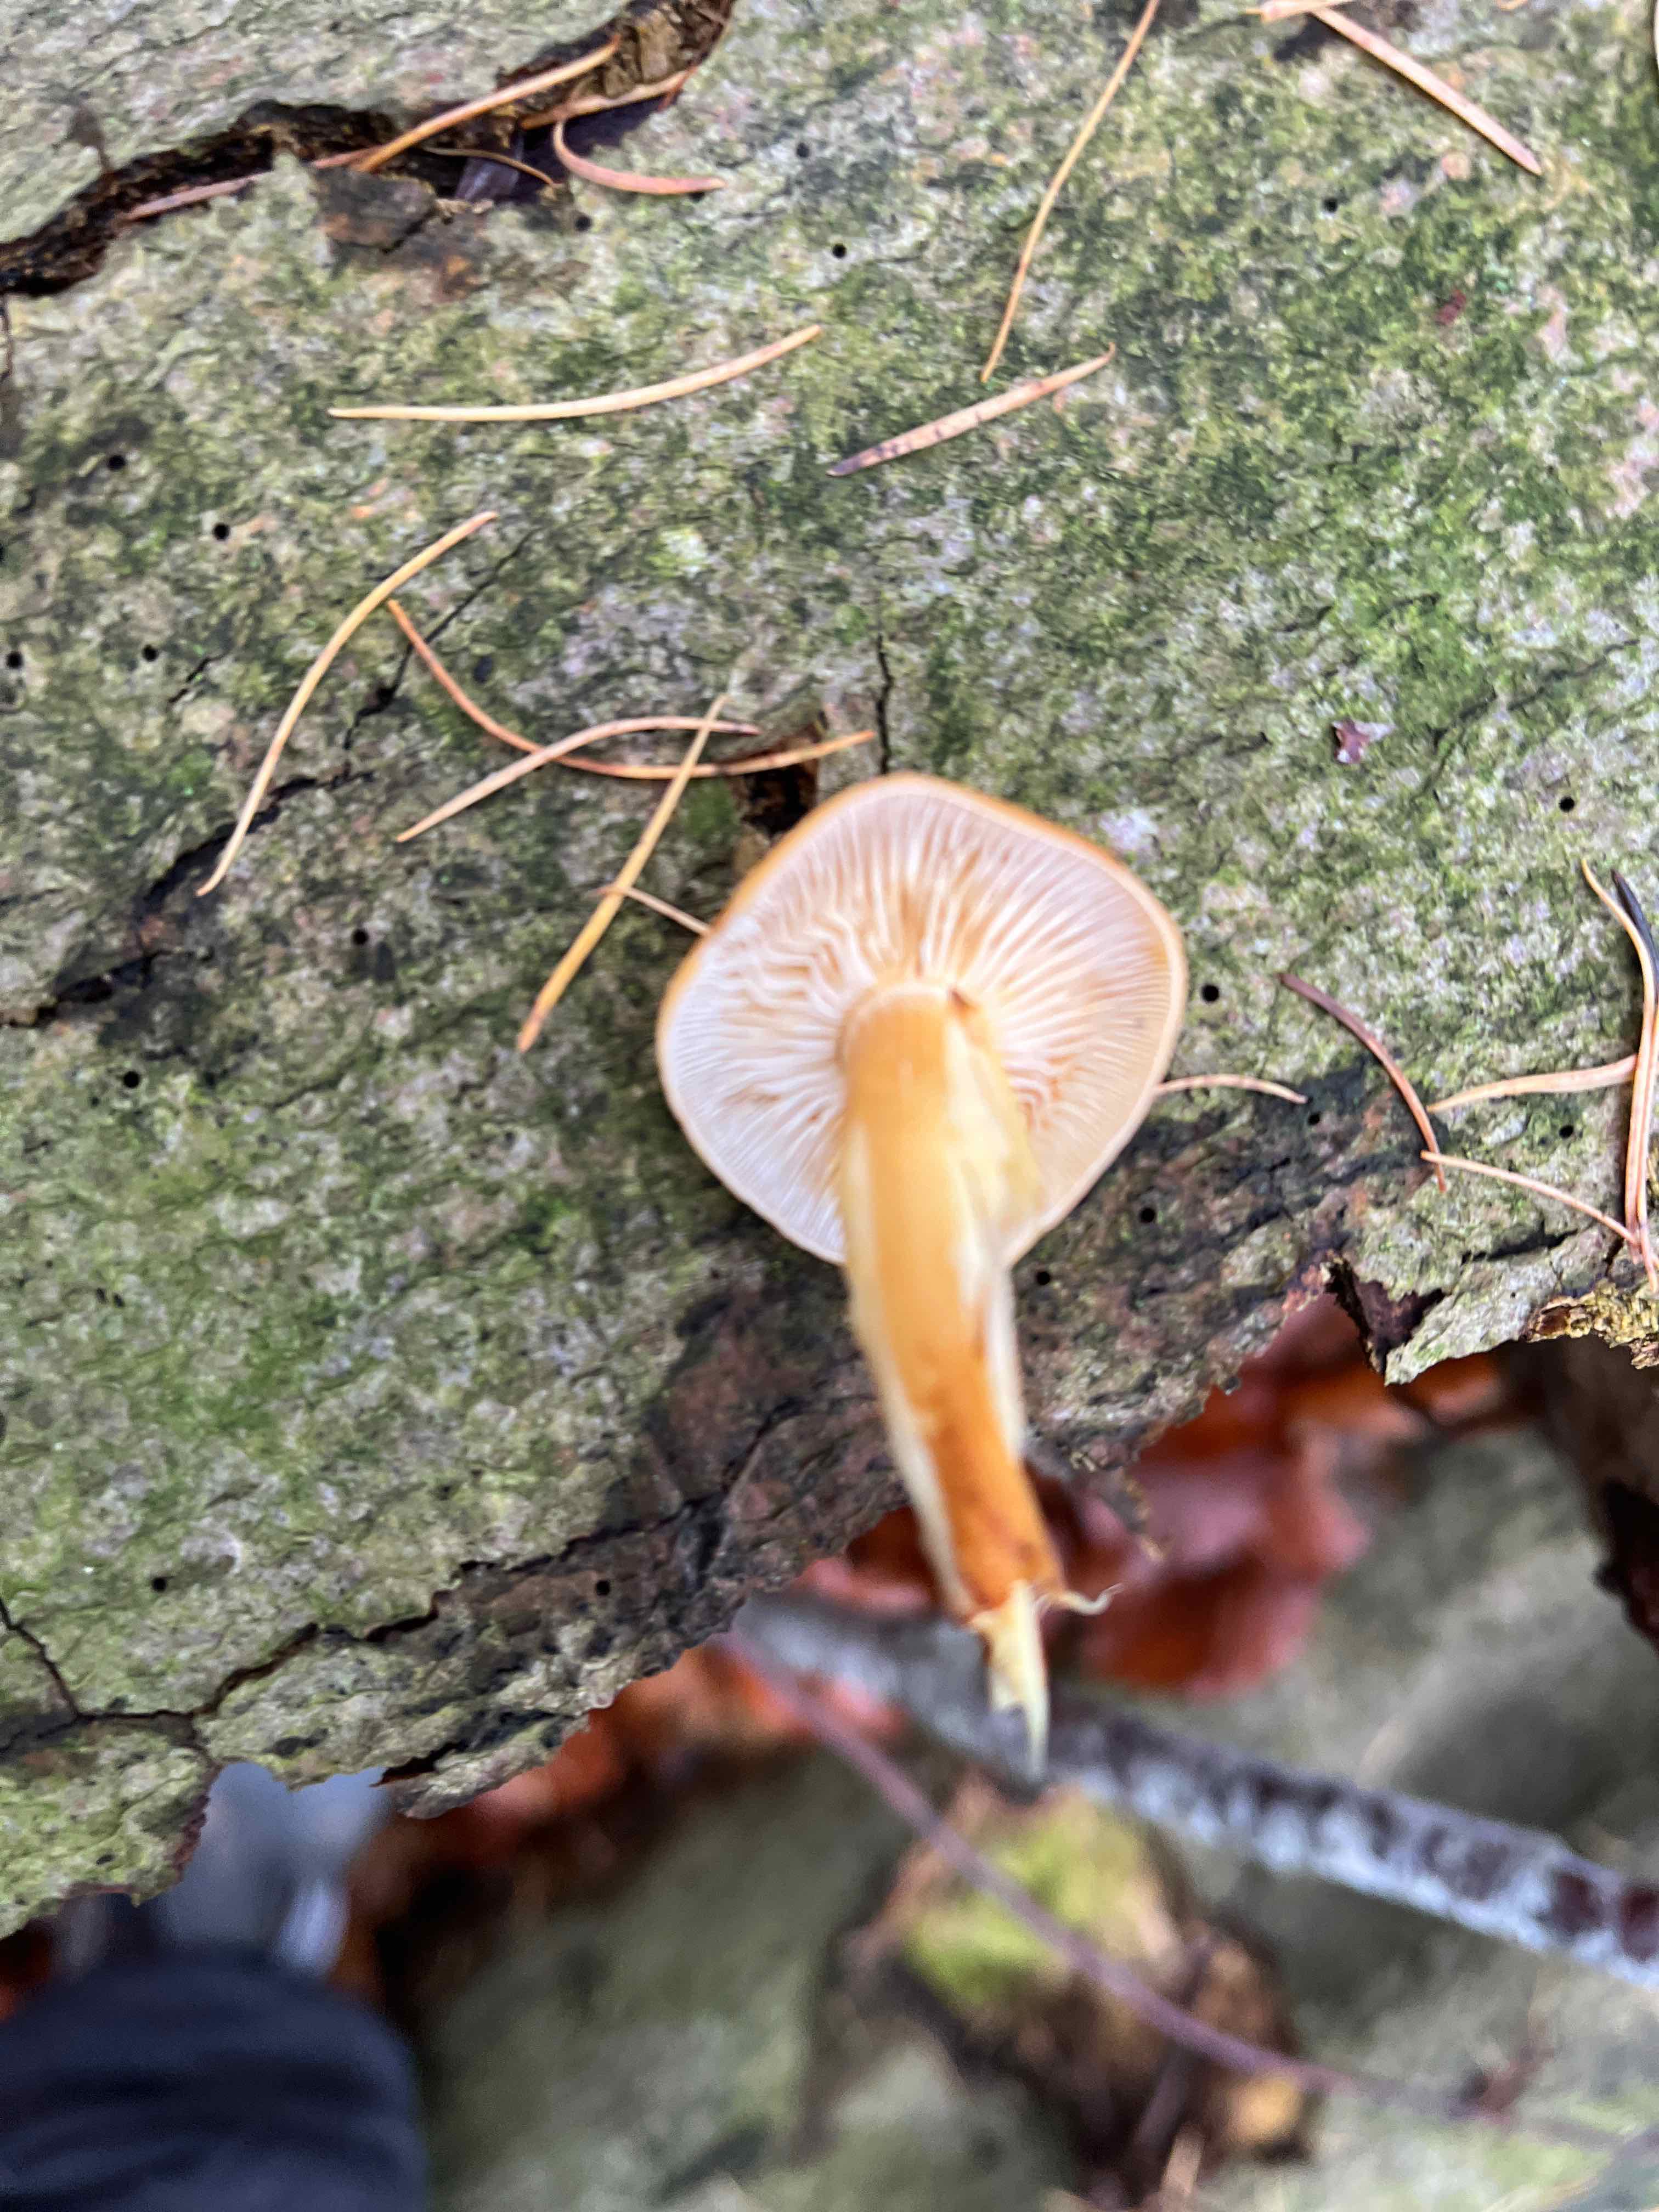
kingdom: Fungi
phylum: Basidiomycota
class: Agaricomycetes
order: Agaricales
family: Physalacriaceae
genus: Flammulina
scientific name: Flammulina velutipes
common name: gul fløjlsfod
